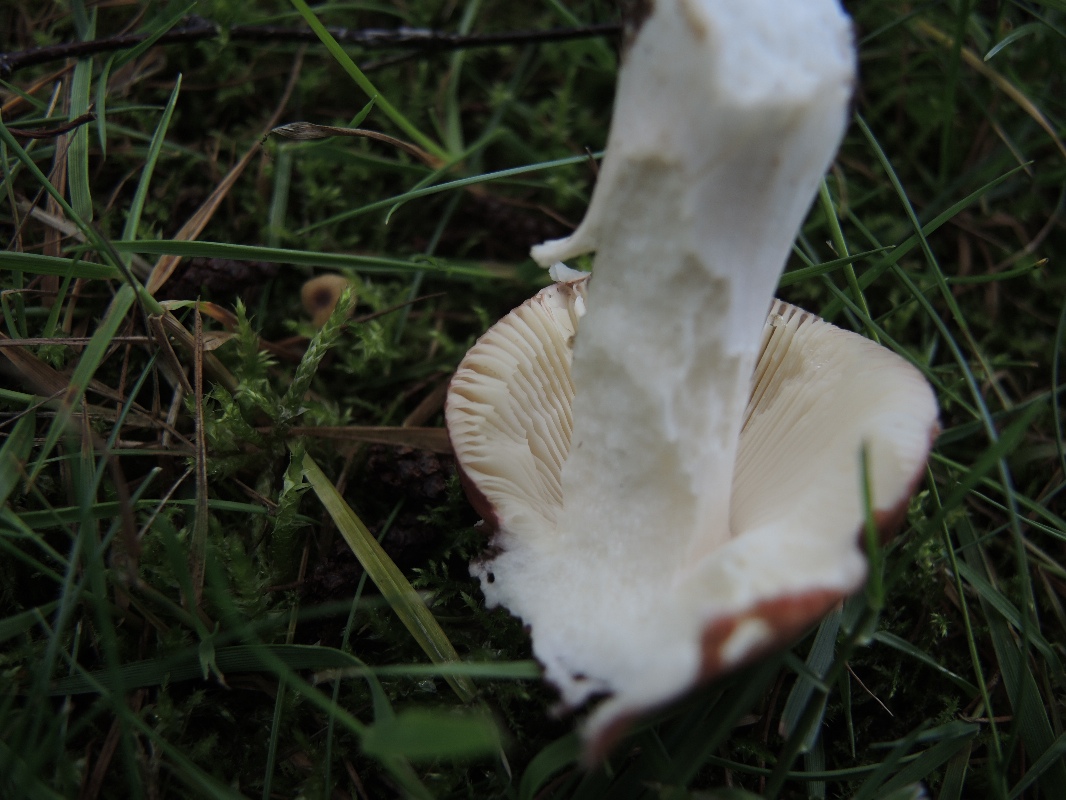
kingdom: Fungi
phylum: Basidiomycota
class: Agaricomycetes
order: Russulales
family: Russulaceae
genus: Russula
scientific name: Russula velenovskyi
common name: orangerød skørhat
